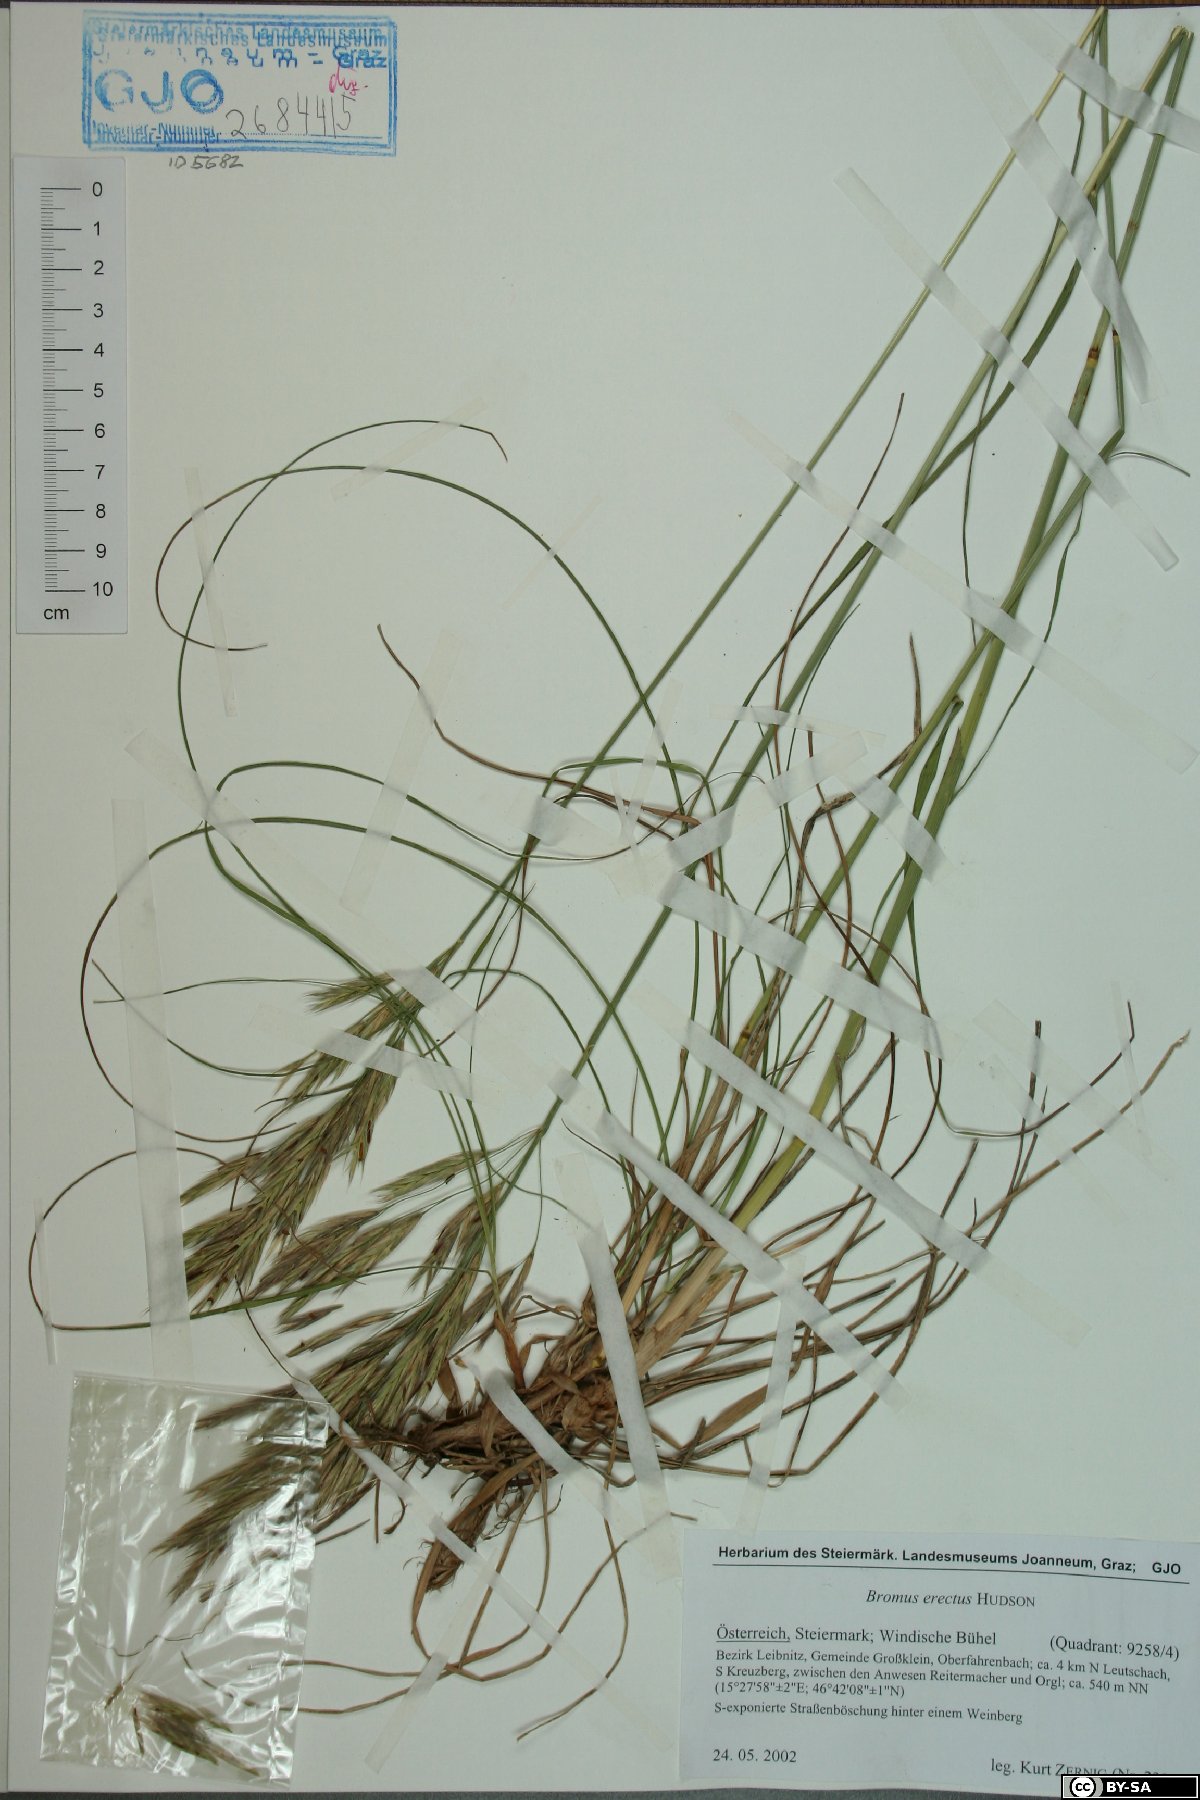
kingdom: Plantae
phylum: Tracheophyta
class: Liliopsida
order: Poales
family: Poaceae
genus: Bromus
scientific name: Bromus erectus
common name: Erect brome
